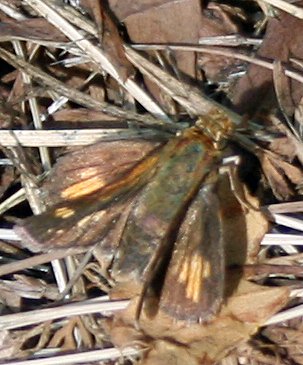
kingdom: Animalia
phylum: Arthropoda
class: Insecta
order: Lepidoptera
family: Hesperiidae
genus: Polites
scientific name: Polites coras
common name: Peck's Skipper
